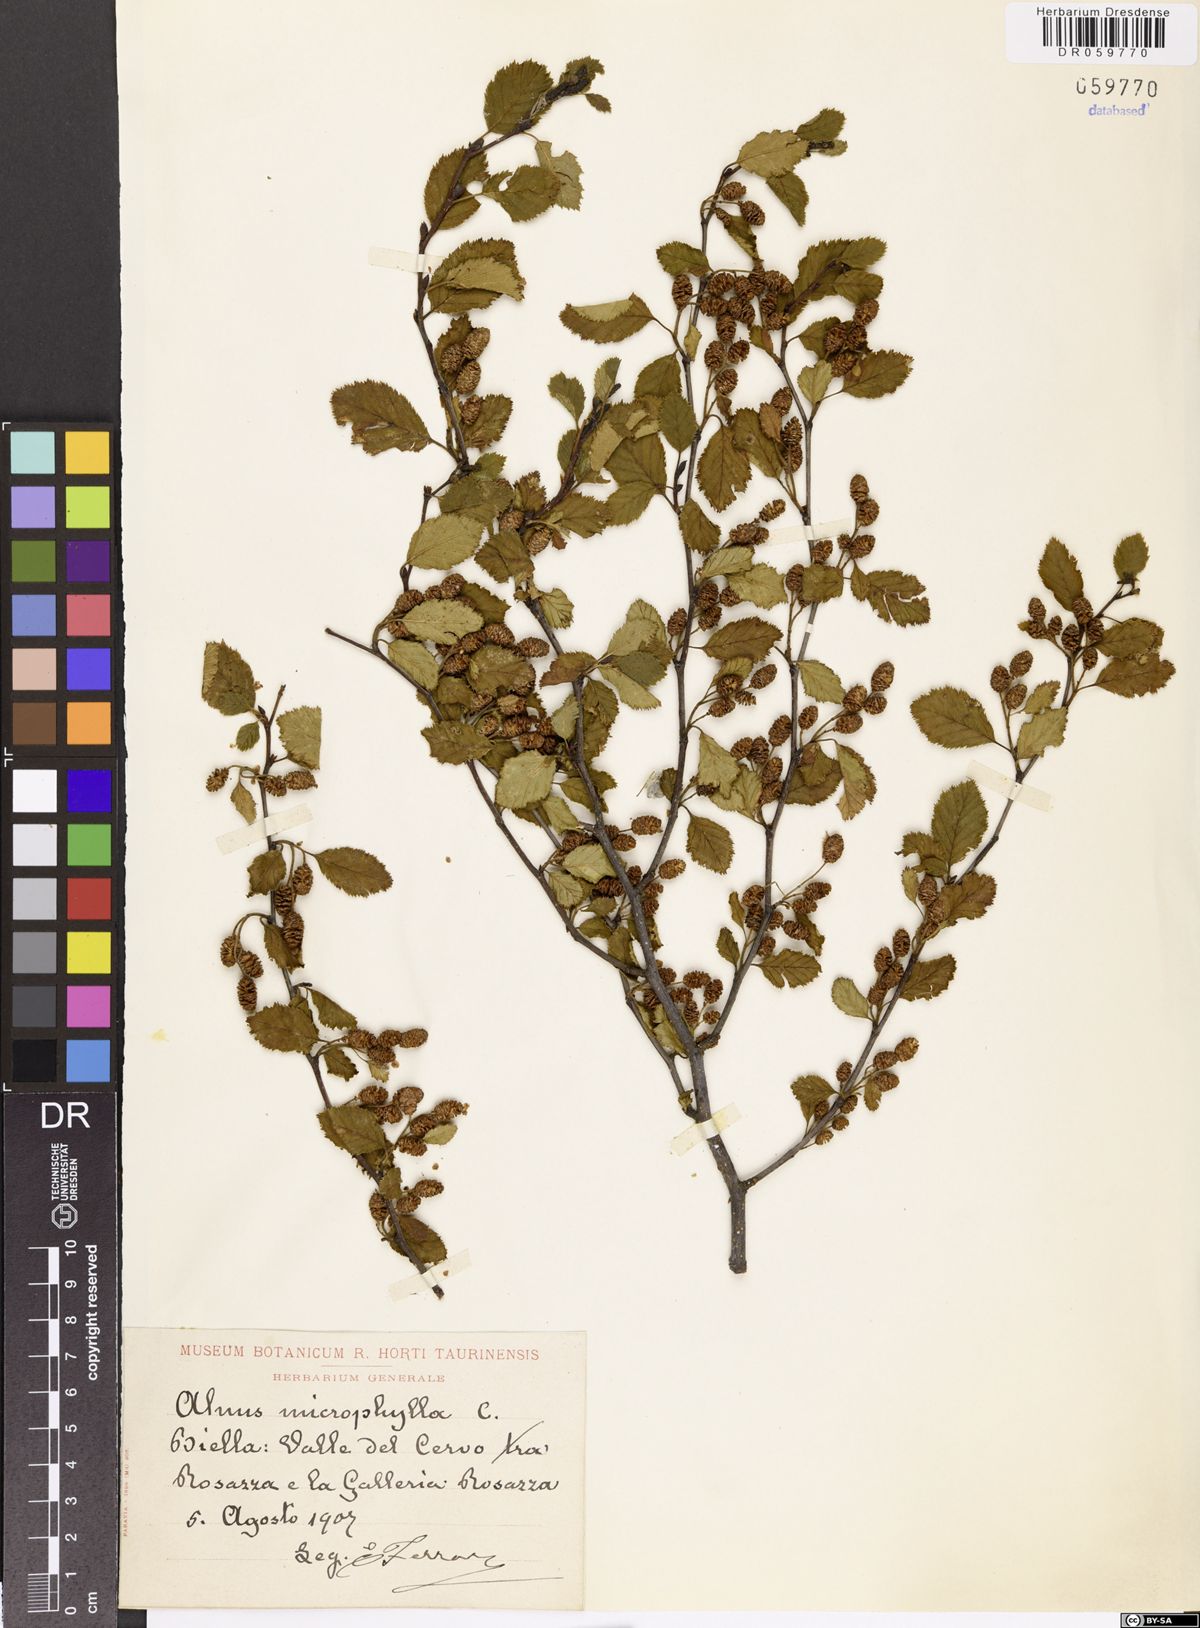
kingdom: Plantae
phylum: Tracheophyta
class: Magnoliopsida
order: Fagales
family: Betulaceae
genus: Alnus
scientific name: Alnus alnobetula
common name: Green alder
